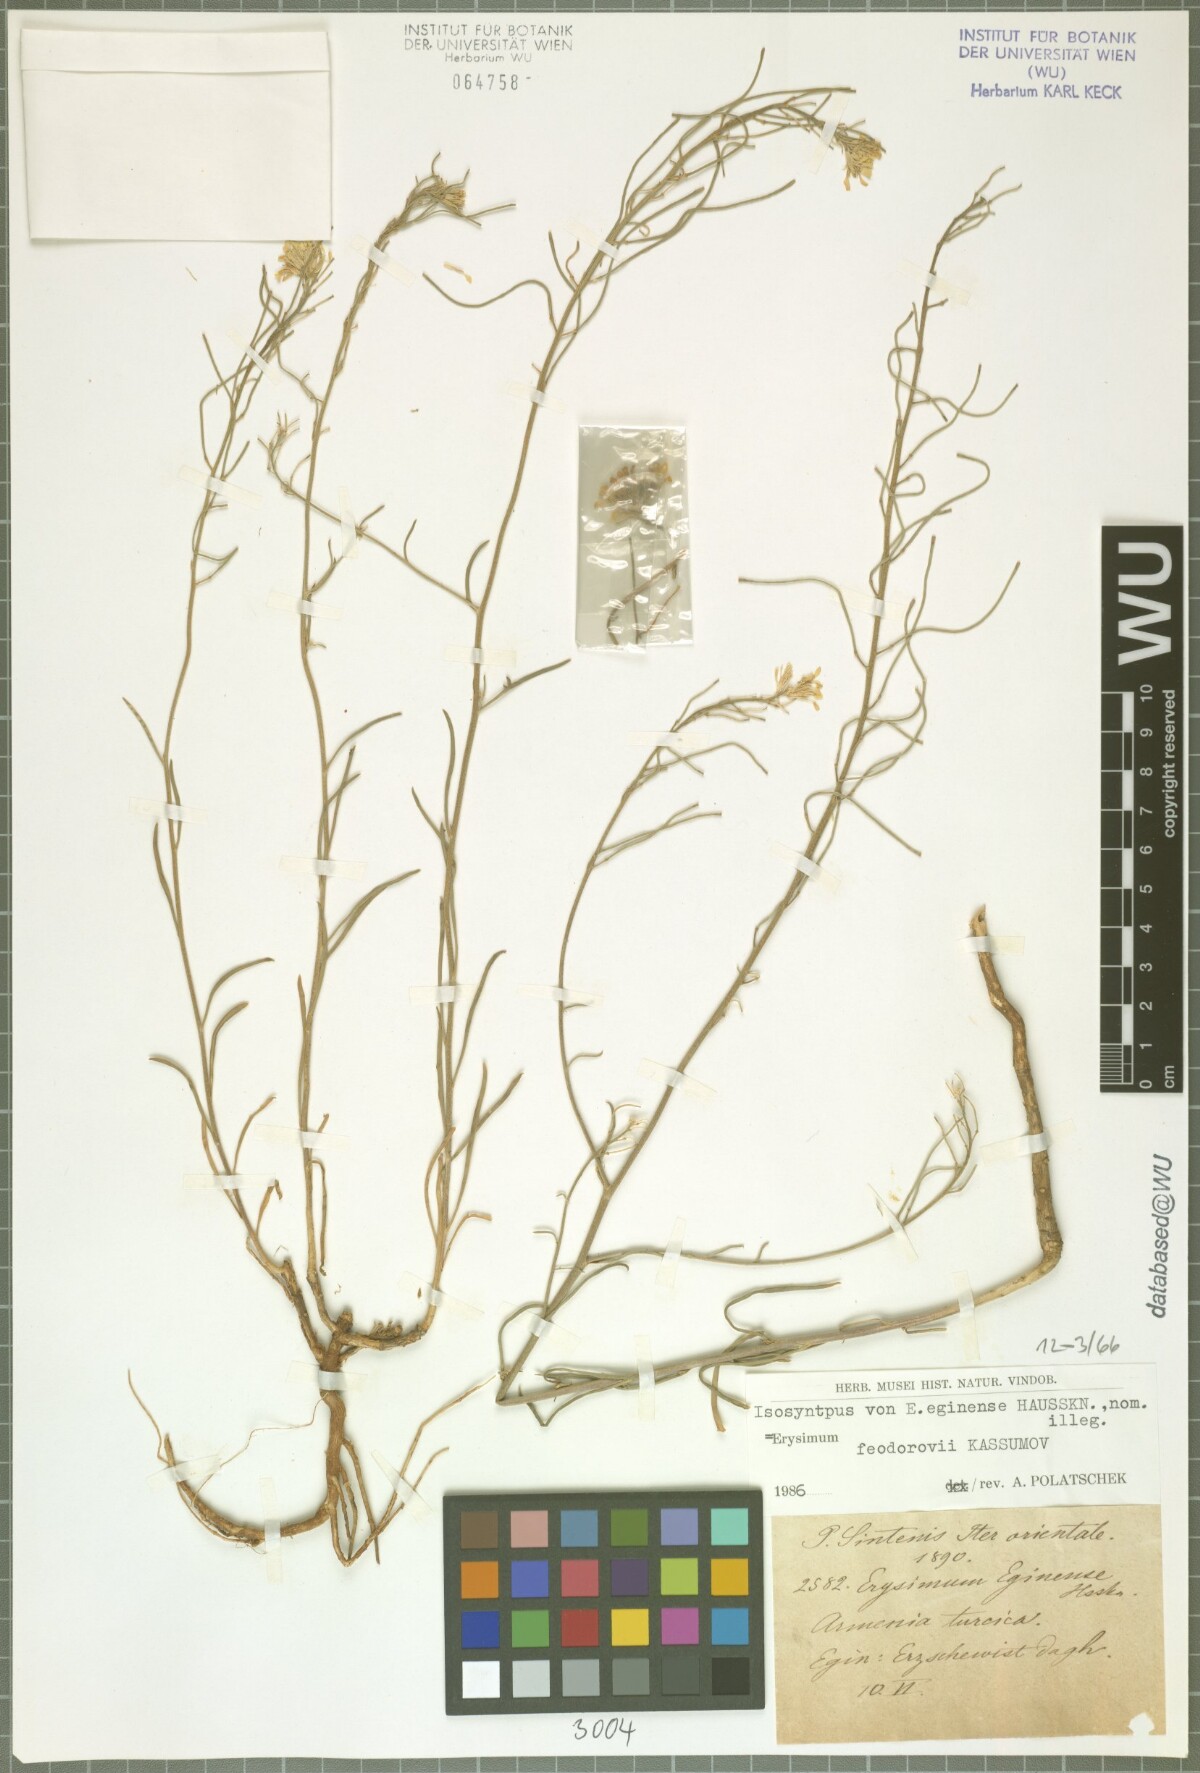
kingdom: Plantae
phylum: Tracheophyta
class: Magnoliopsida
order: Brassicales
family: Brassicaceae
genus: Erysimum
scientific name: Erysimum smyrnaeum
